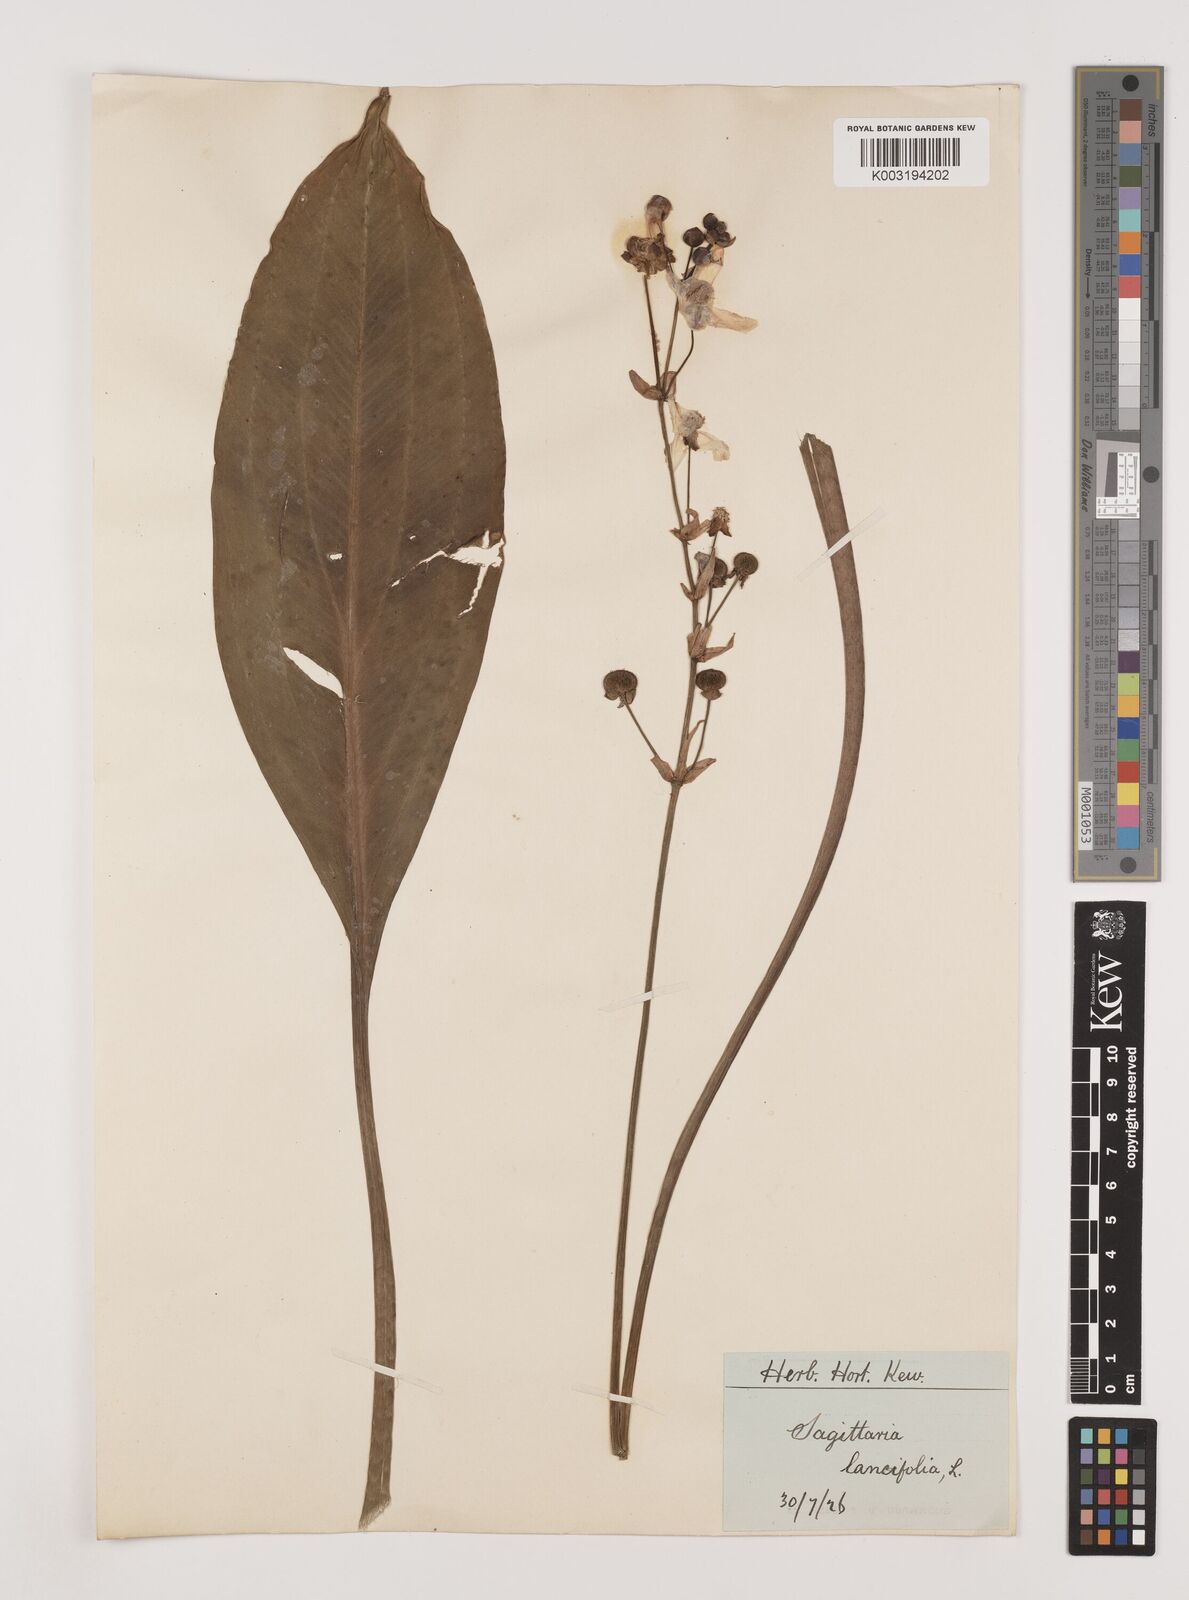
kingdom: Plantae
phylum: Tracheophyta
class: Liliopsida
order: Alismatales
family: Alismataceae
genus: Sagittaria
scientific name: Sagittaria lancifolia
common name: Lance-leaf arrowhead
